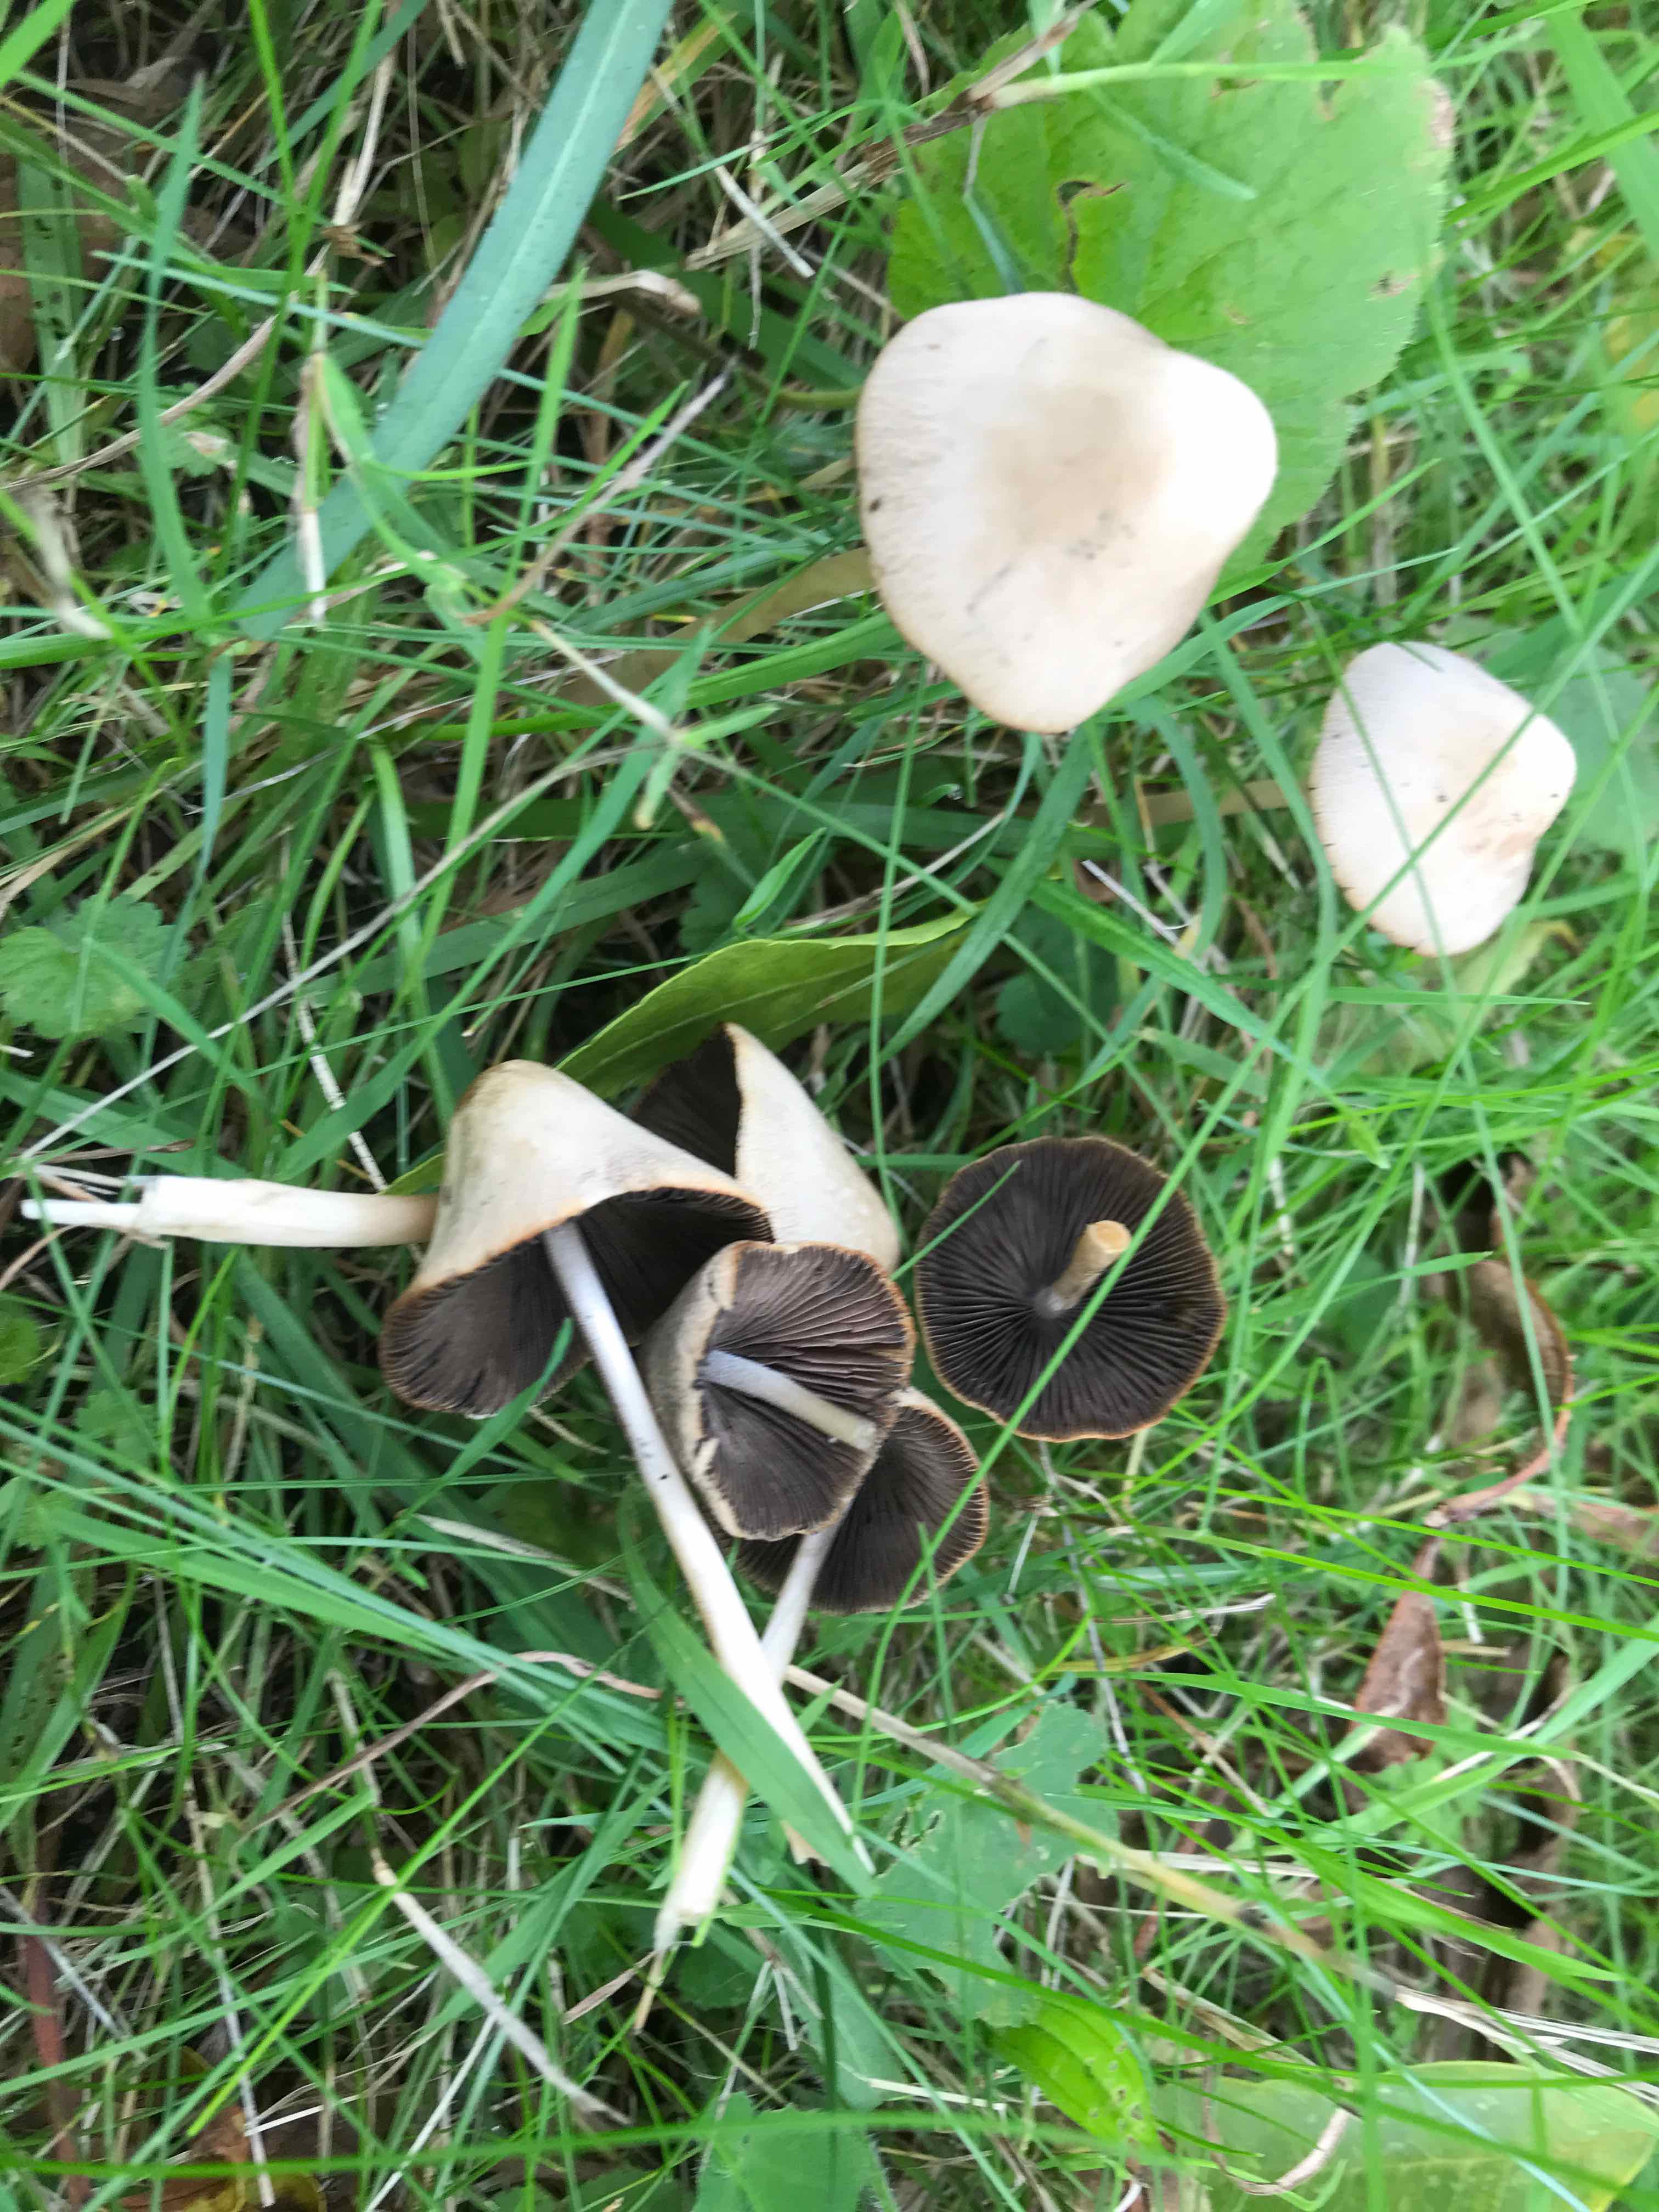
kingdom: Fungi
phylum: Basidiomycota
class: Agaricomycetes
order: Agaricales
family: Psathyrellaceae
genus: Parasola
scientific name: Parasola conopilea
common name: kegle-hjulhat
